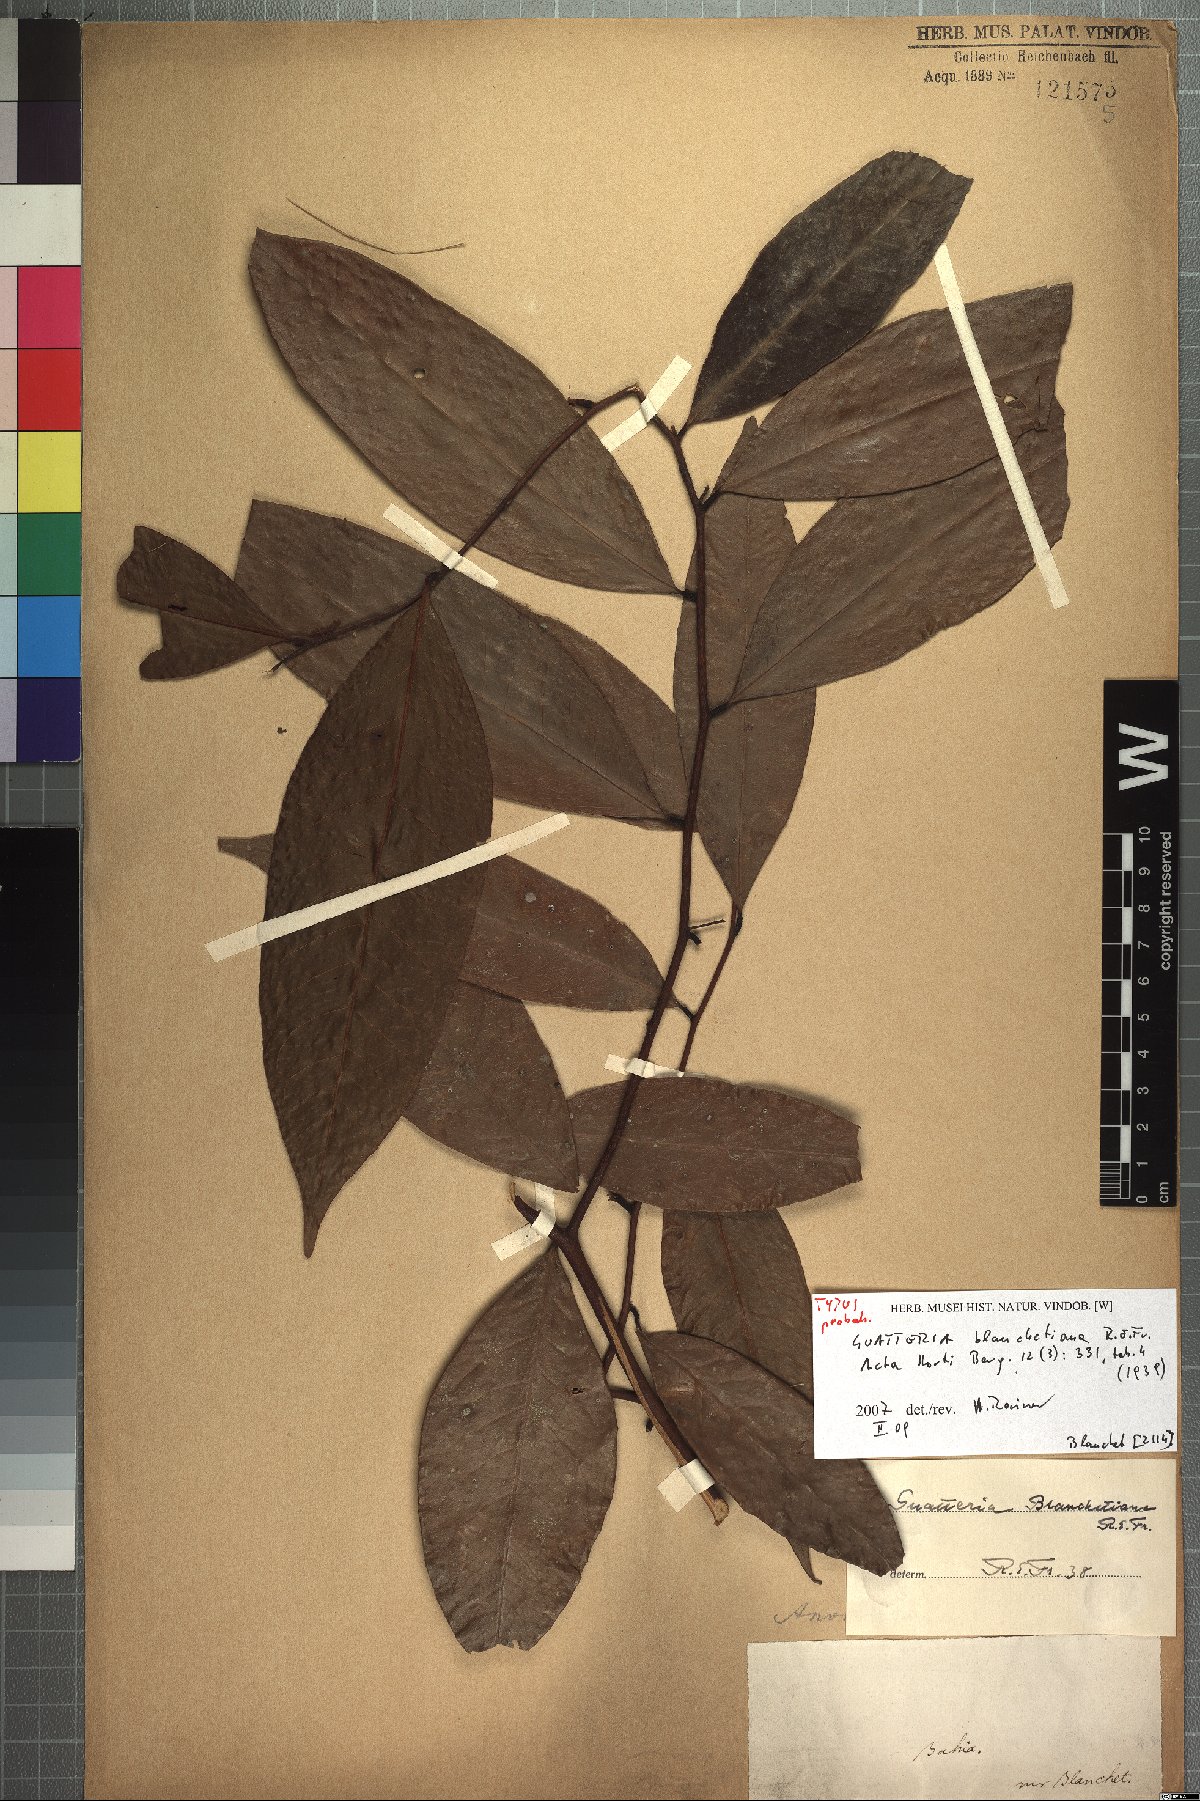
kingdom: Plantae
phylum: Tracheophyta
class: Magnoliopsida
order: Magnoliales
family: Annonaceae
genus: Guatteria
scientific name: Guatteria australis
